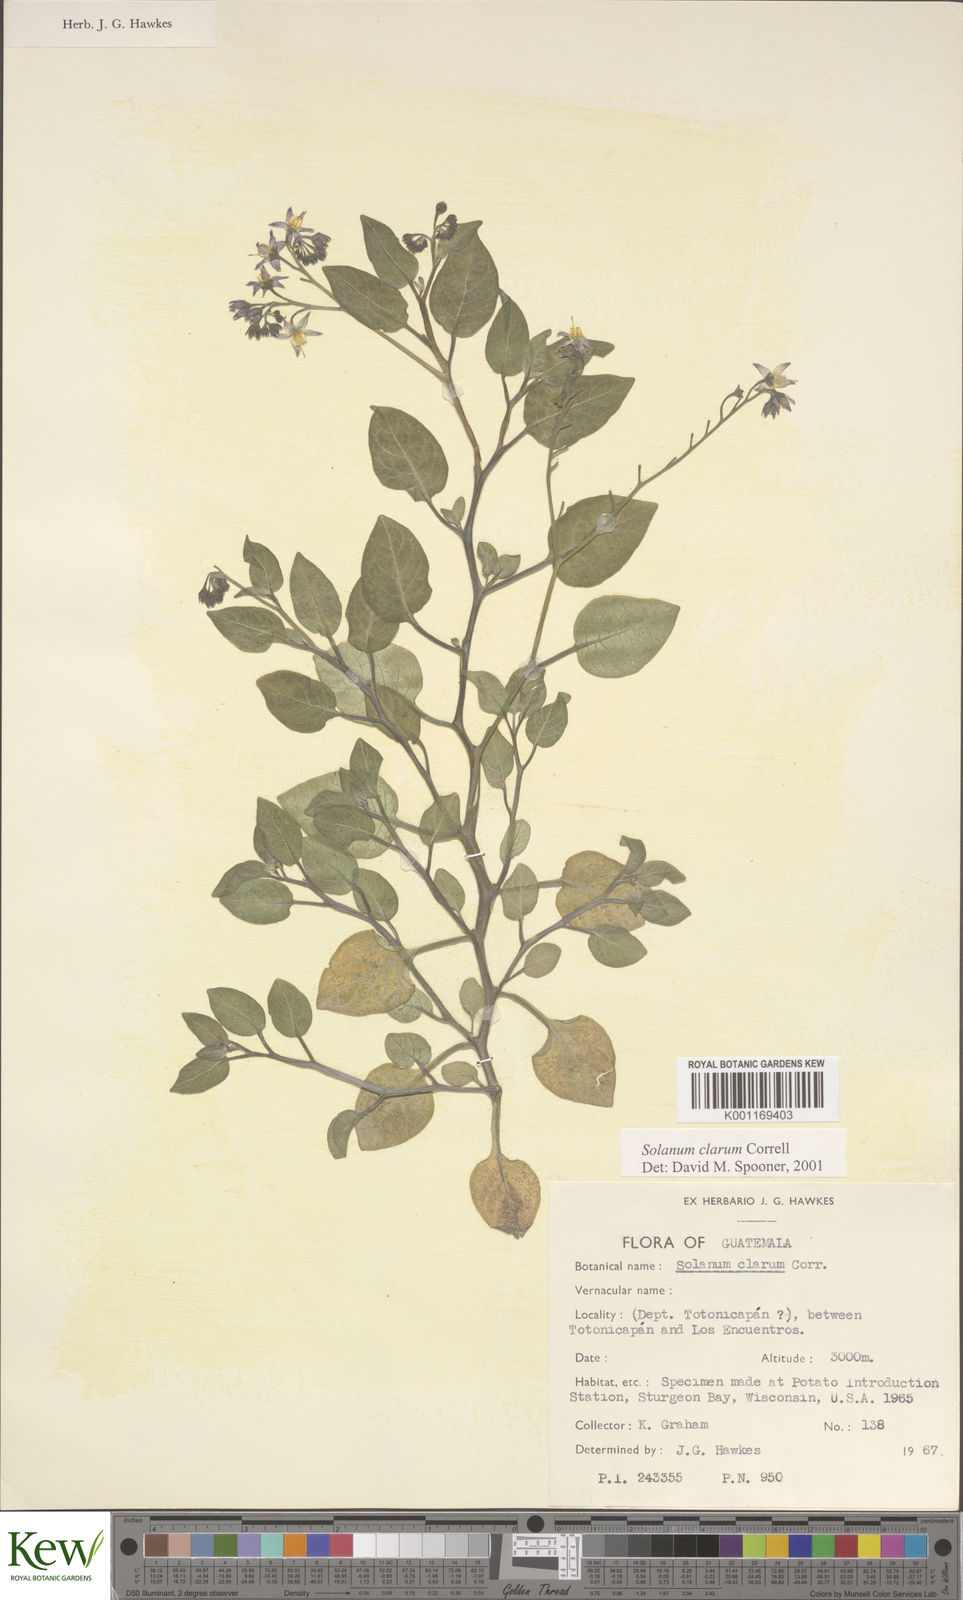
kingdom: Plantae
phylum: Tracheophyta
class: Magnoliopsida
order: Solanales
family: Solanaceae
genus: Solanum
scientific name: Solanum clarum
